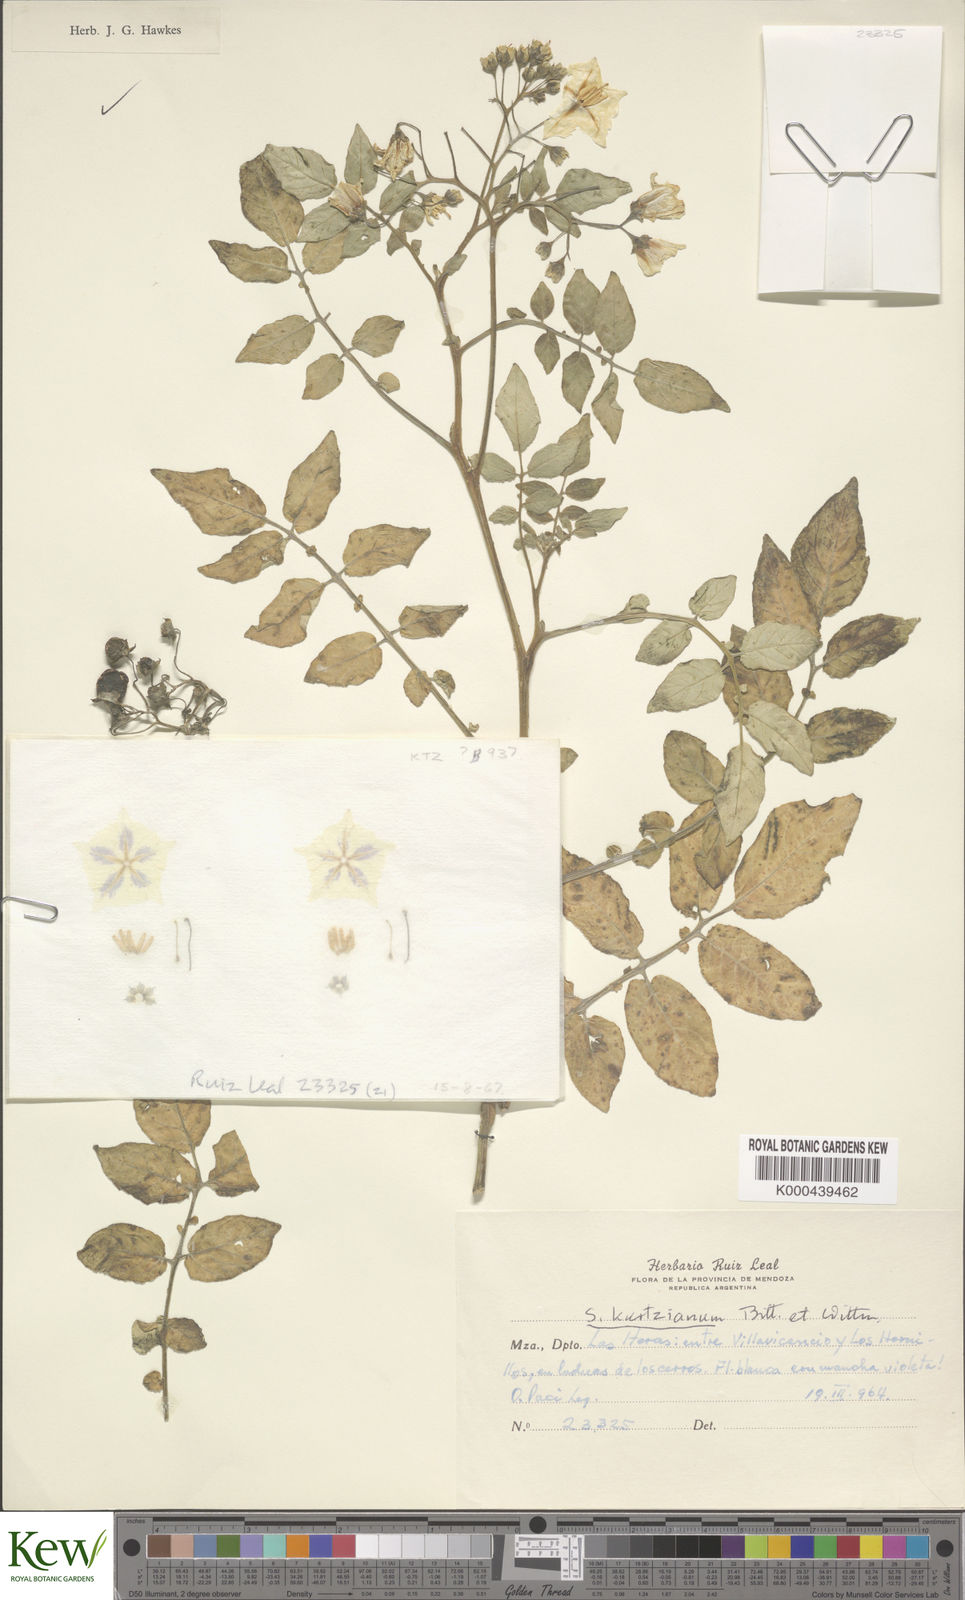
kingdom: Plantae
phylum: Tracheophyta
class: Magnoliopsida
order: Solanales
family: Solanaceae
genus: Solanum
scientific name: Solanum kurtzianum
